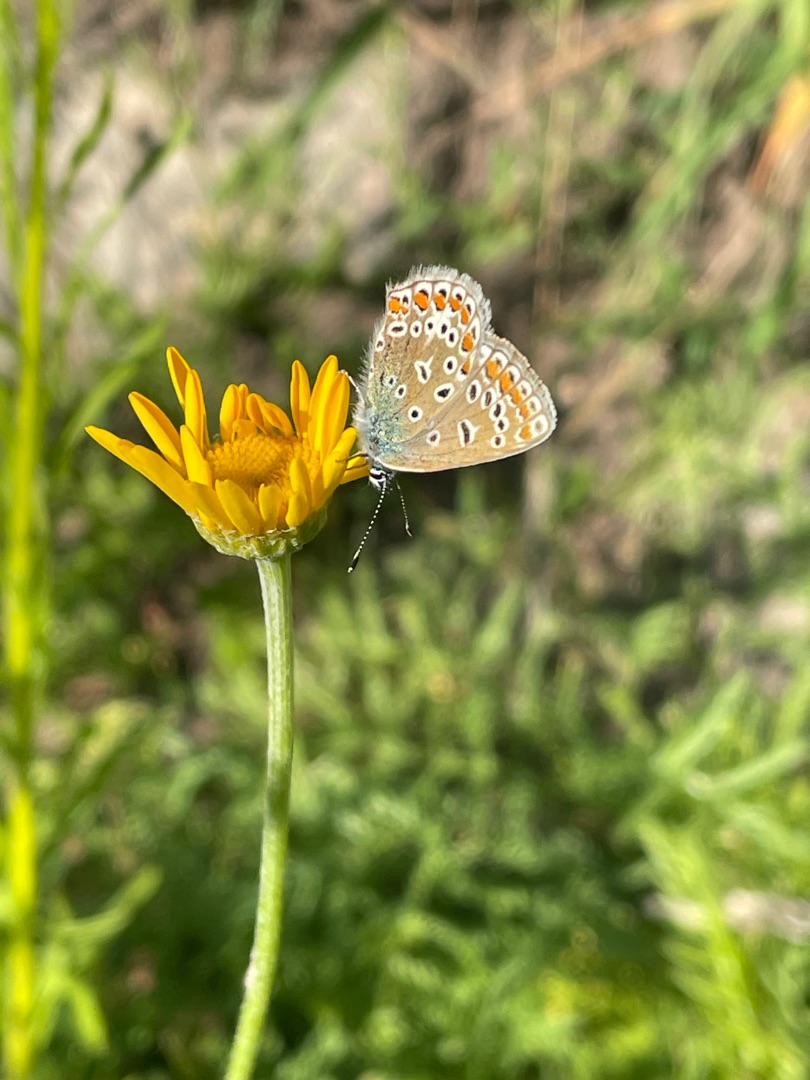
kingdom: Animalia
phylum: Arthropoda
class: Insecta
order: Lepidoptera
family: Lycaenidae
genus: Polyommatus
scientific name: Polyommatus icarus
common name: Almindelig blåfugl
